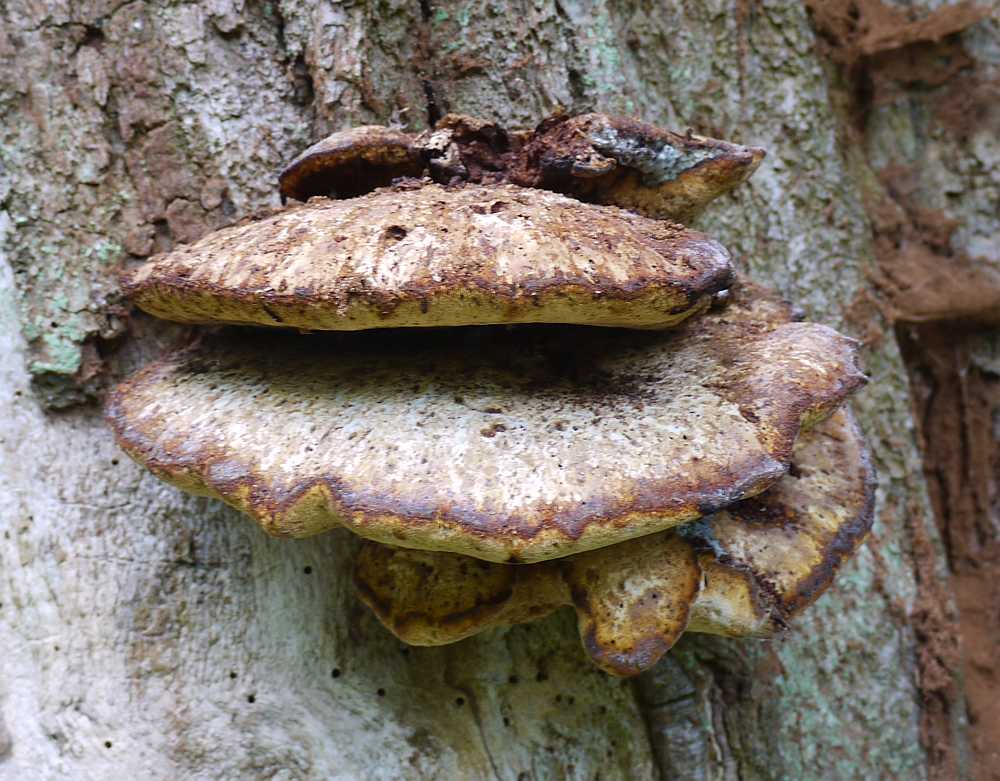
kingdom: Fungi
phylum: Basidiomycota
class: Agaricomycetes
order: Polyporales
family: Fomitopsidaceae
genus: Buglossoporus
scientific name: Buglossoporus quercinus
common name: egetunge
